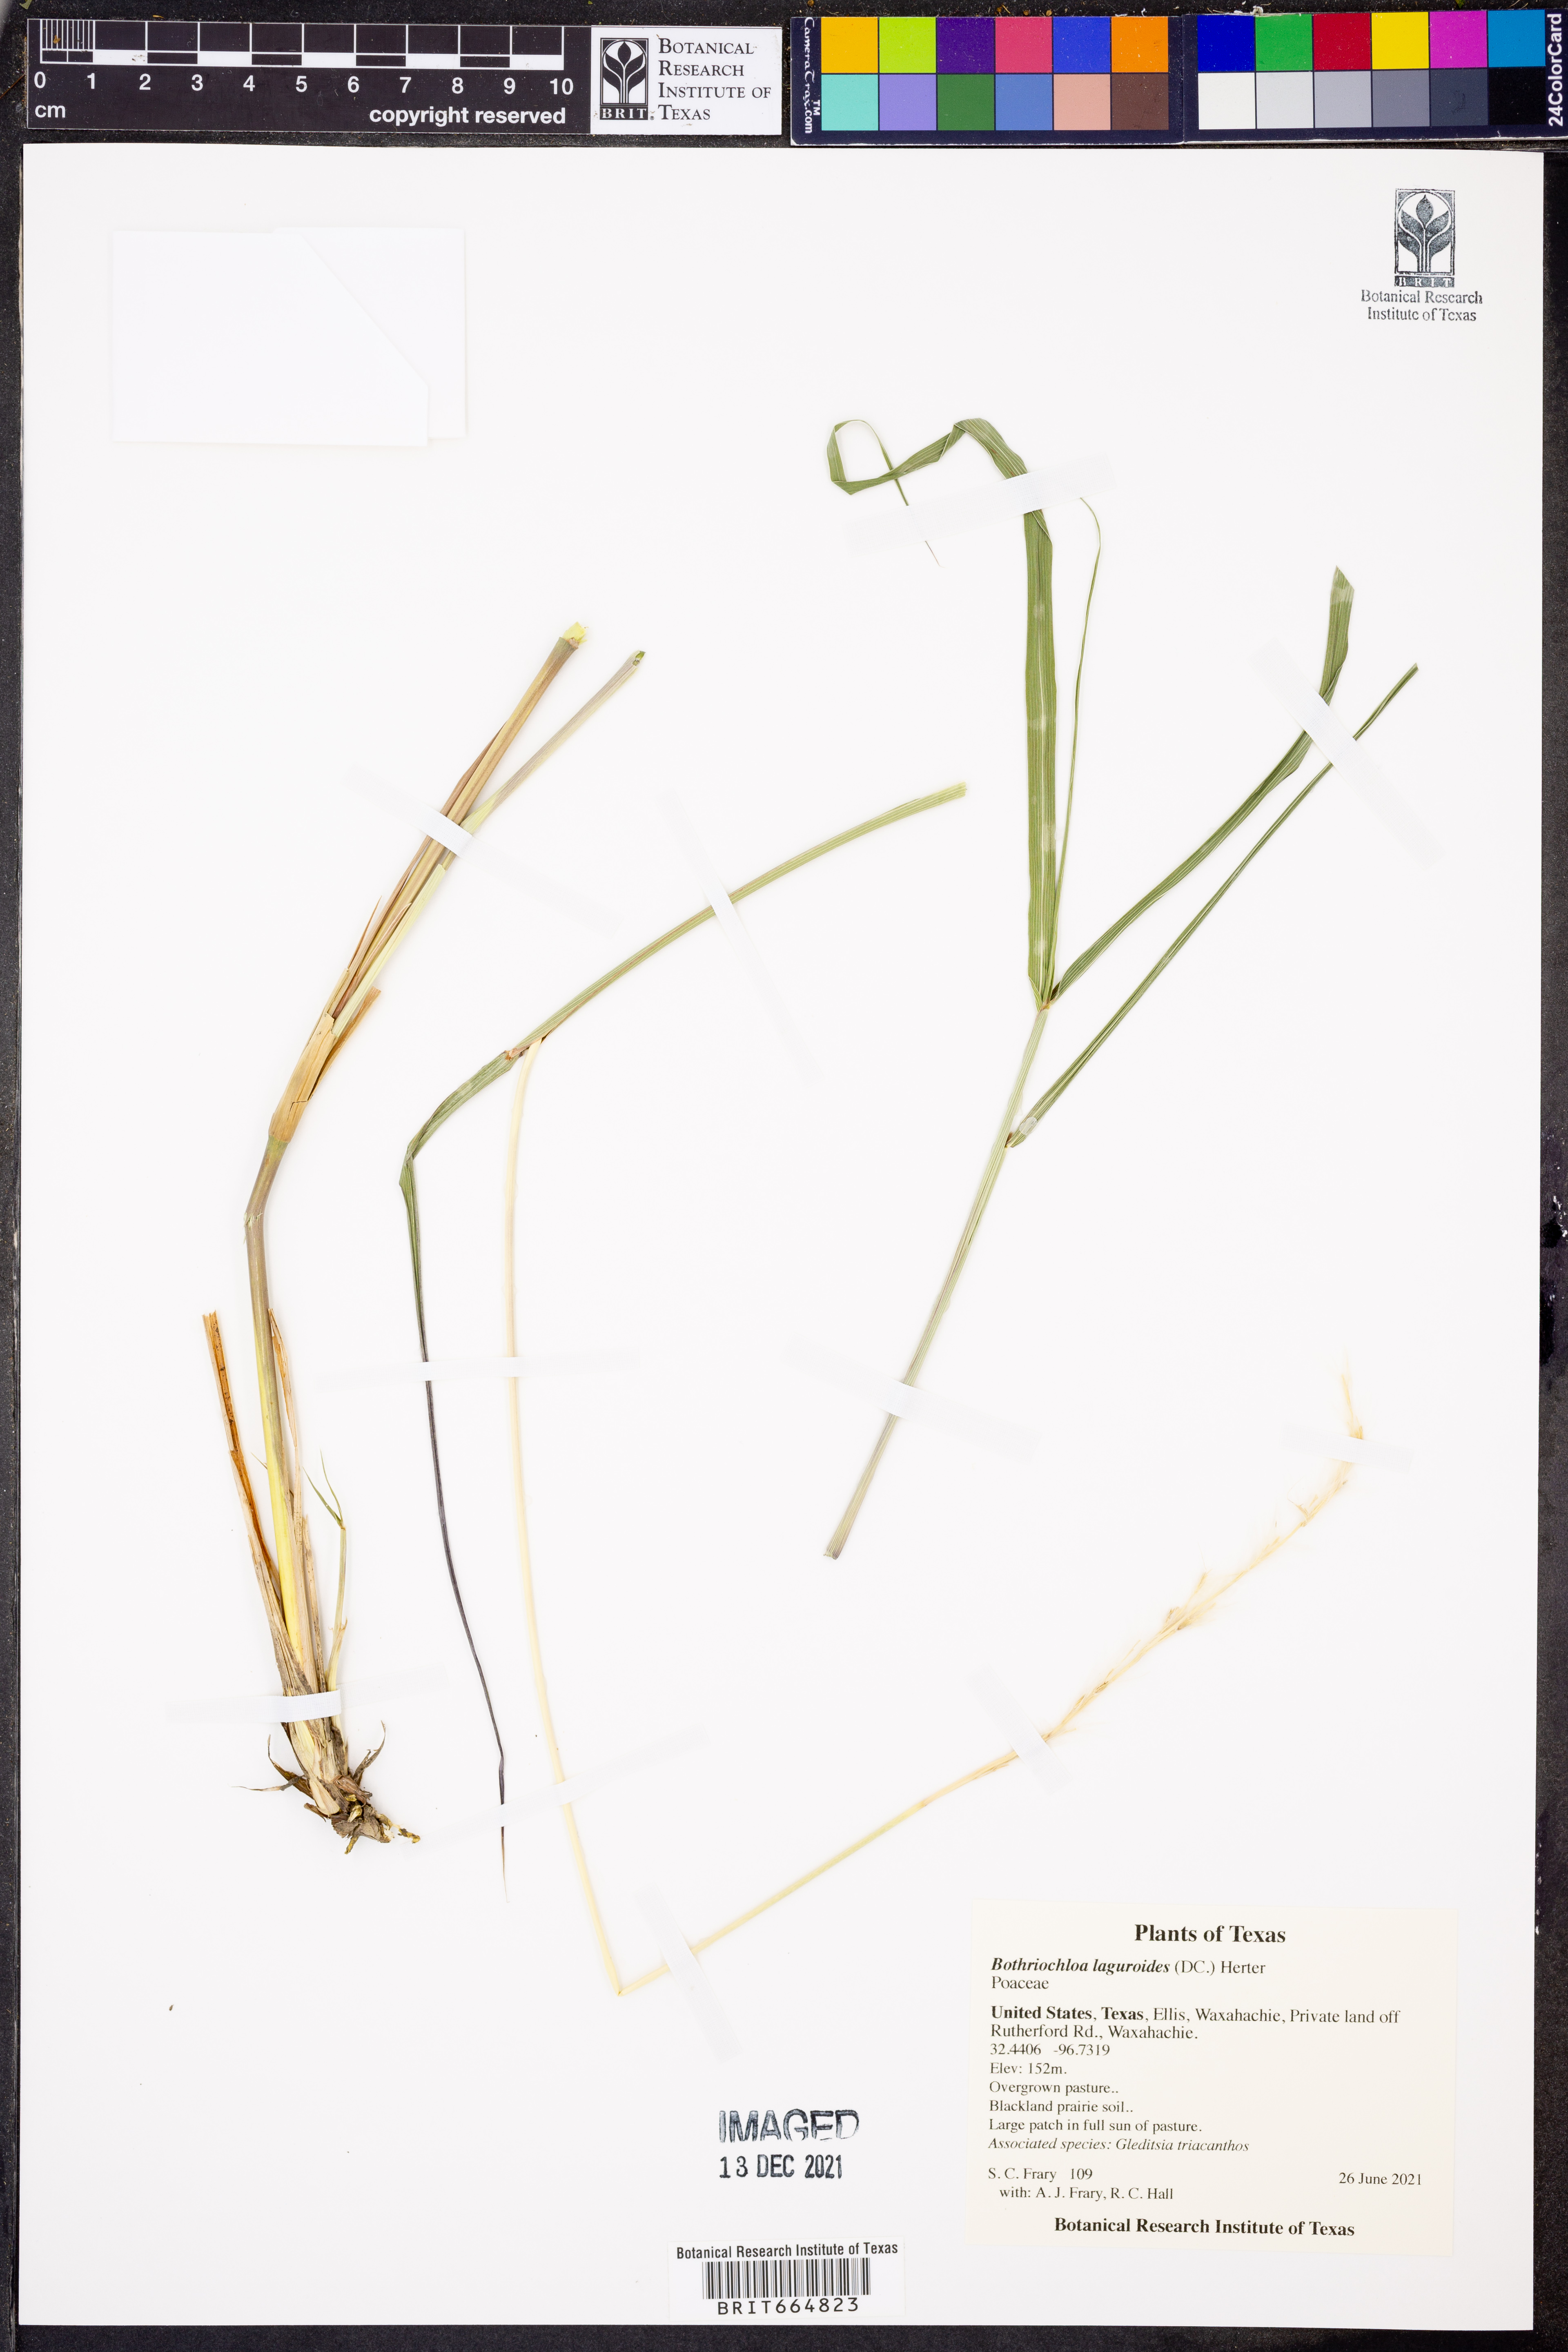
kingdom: Plantae
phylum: Tracheophyta
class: Liliopsida
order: Poales
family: Poaceae
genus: Bothriochloa
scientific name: Bothriochloa laguroides
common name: Silver bluestem
